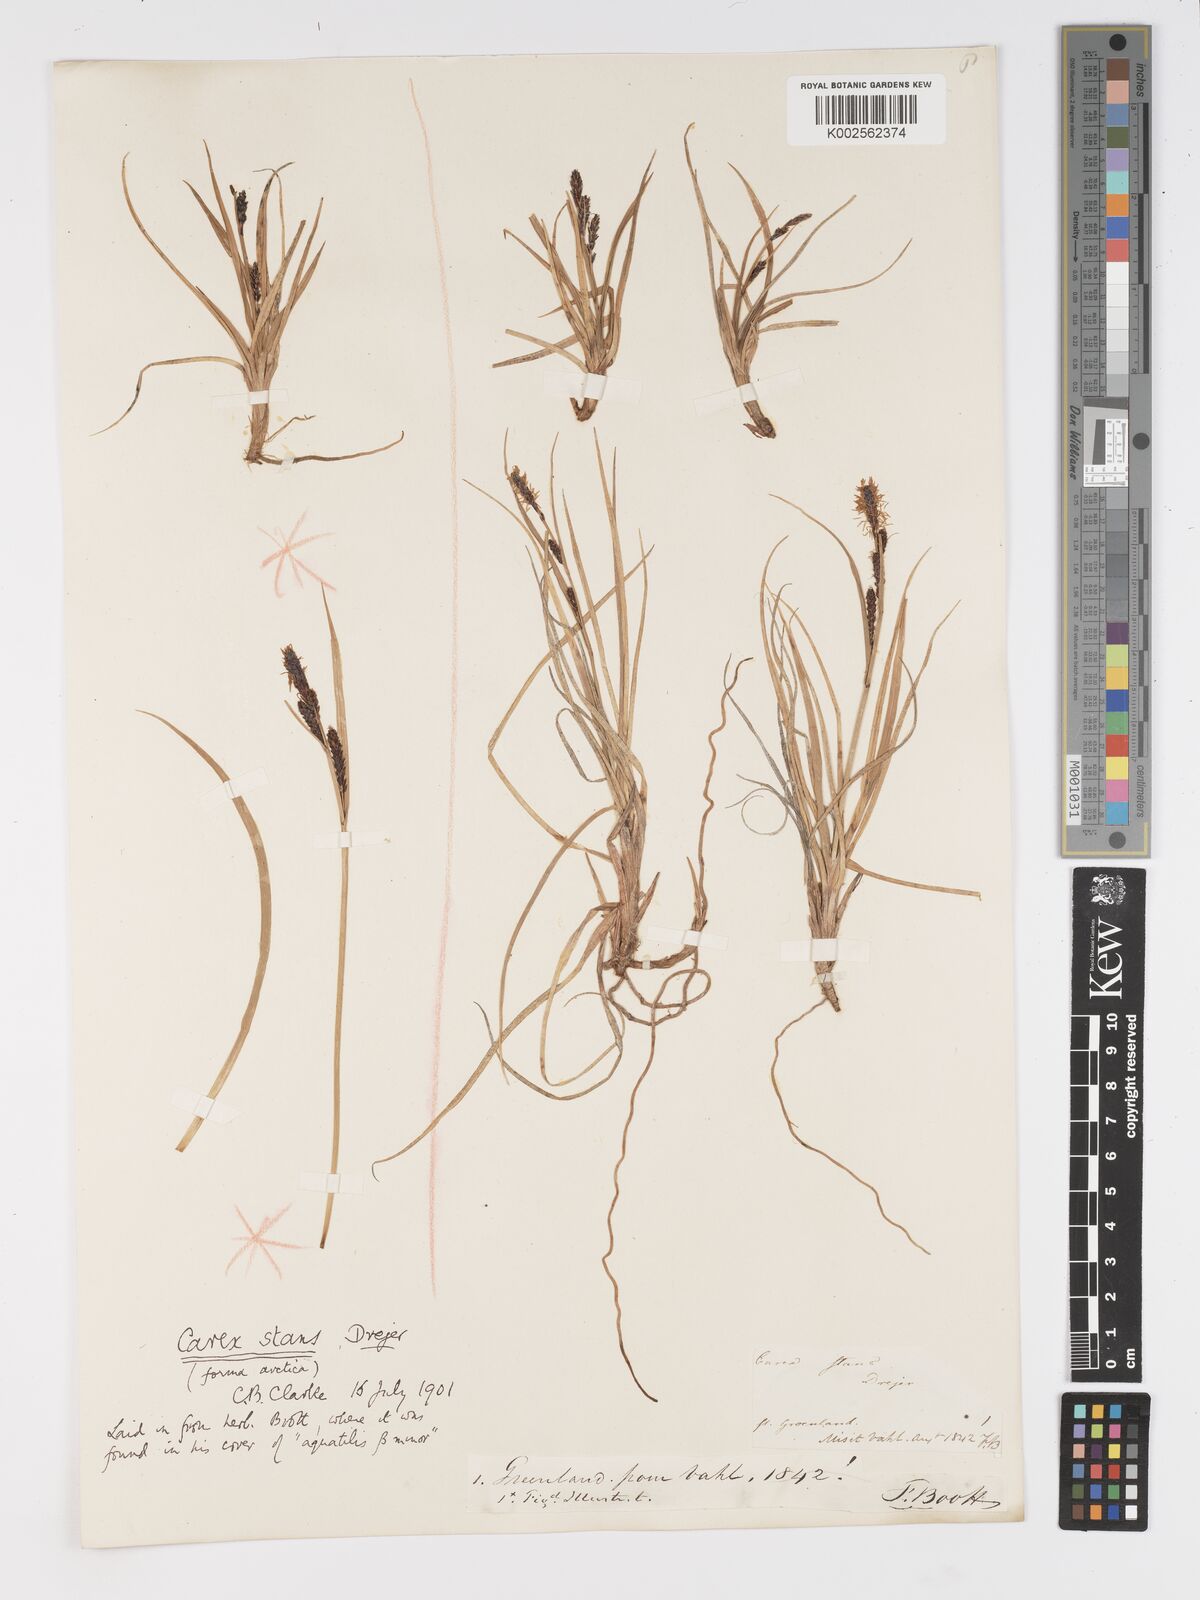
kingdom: Plantae
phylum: Tracheophyta
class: Liliopsida
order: Poales
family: Cyperaceae
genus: Carex
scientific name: Carex aquatilis
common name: Water sedge
